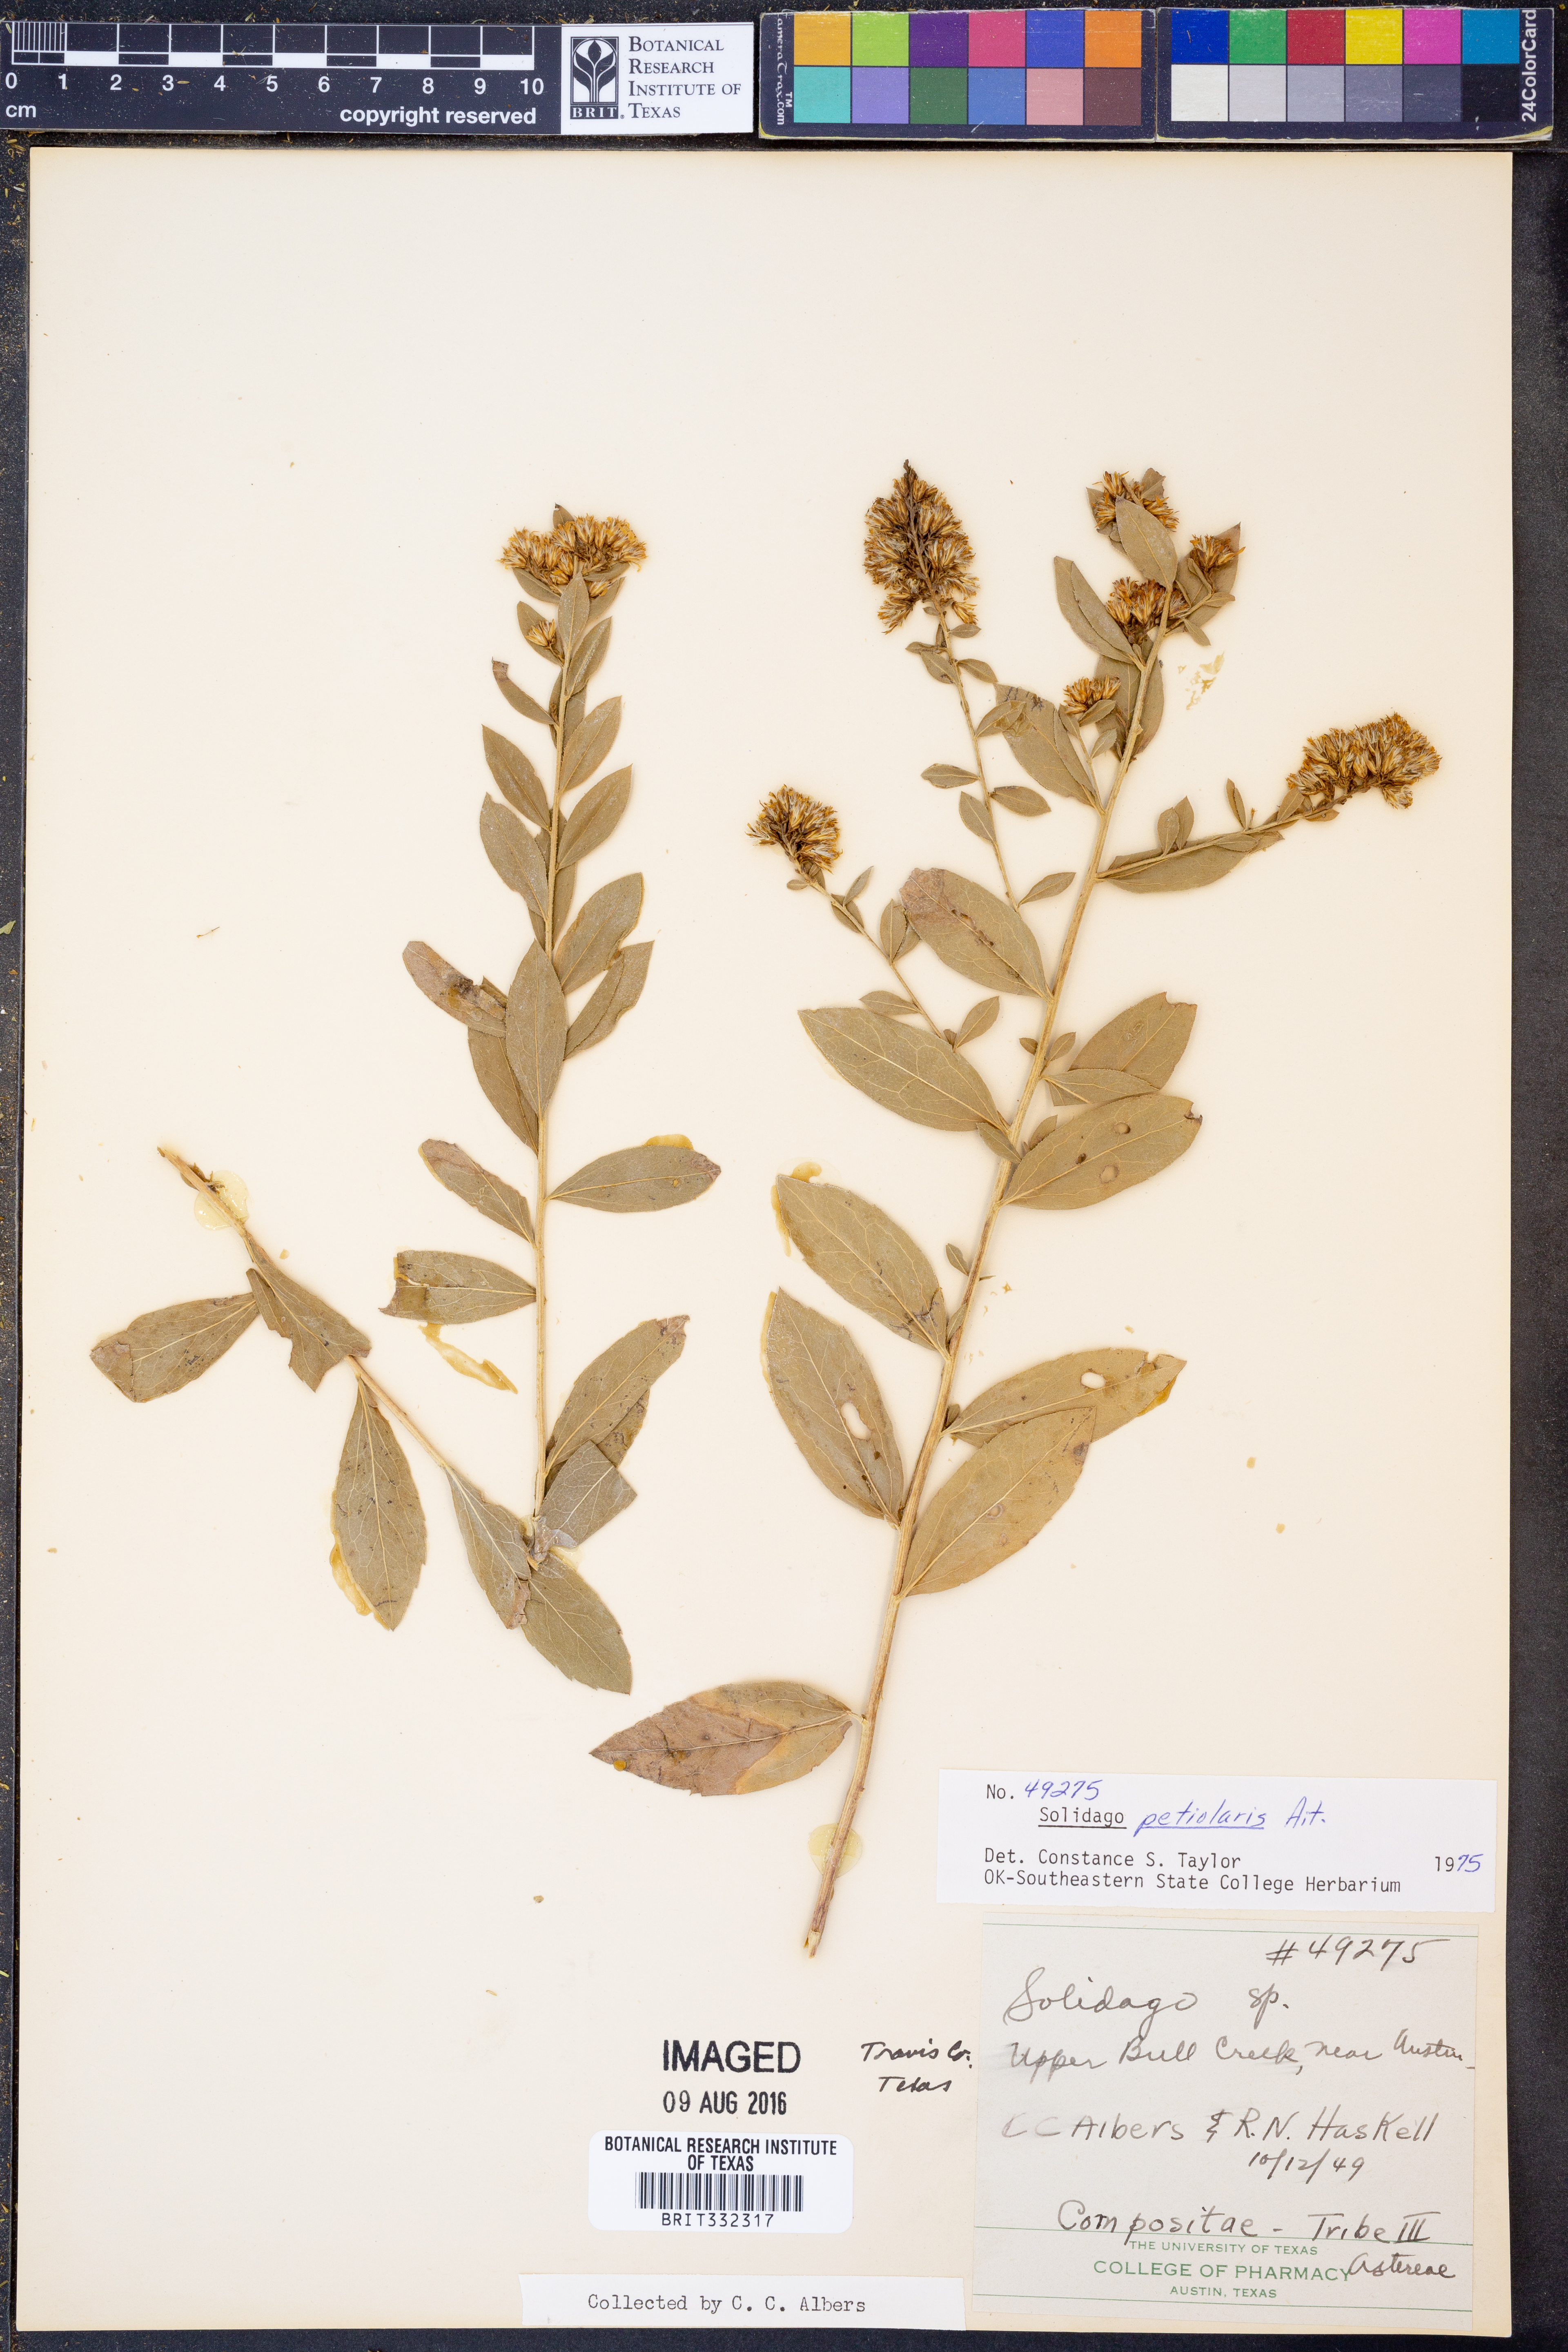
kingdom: Plantae
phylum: Tracheophyta
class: Magnoliopsida
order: Asterales
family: Asteraceae
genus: Solidago
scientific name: Solidago petiolaris
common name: Downy ragged goldenrod
